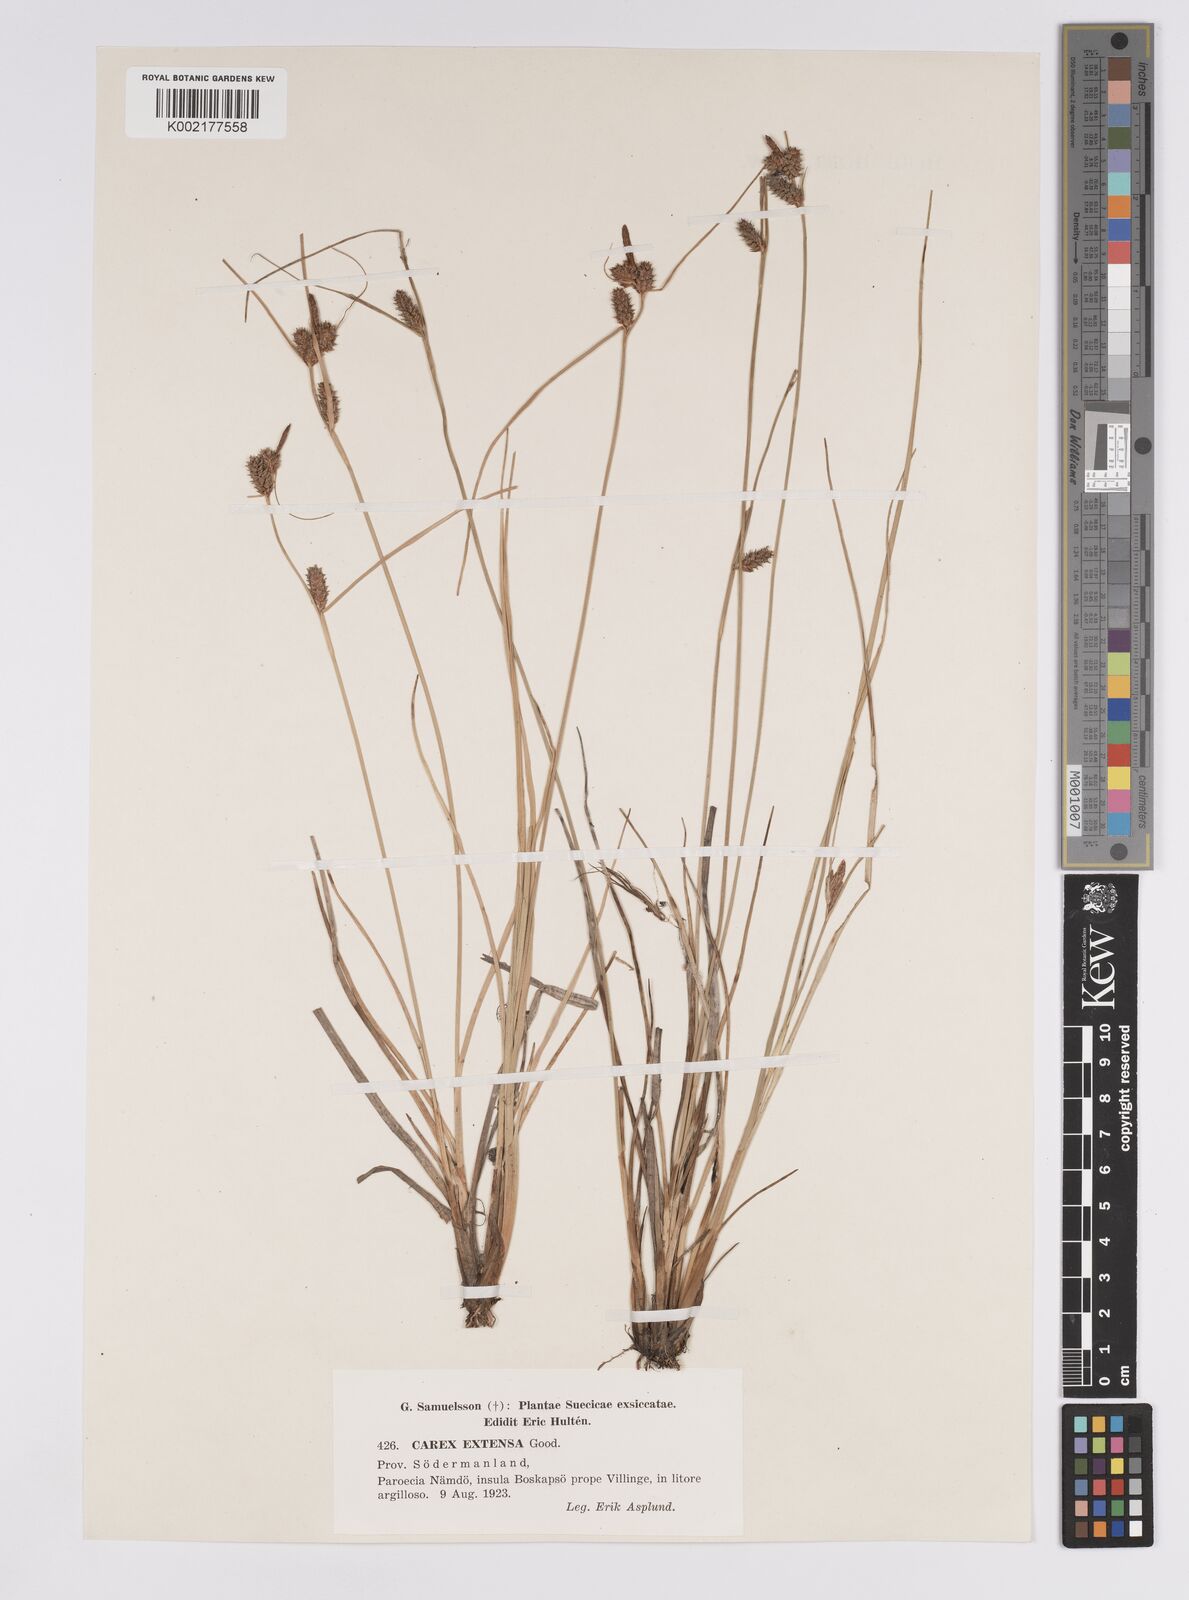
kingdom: Plantae
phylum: Tracheophyta
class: Liliopsida
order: Poales
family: Cyperaceae
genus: Carex
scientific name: Carex extensa
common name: Long-bracted sedge
